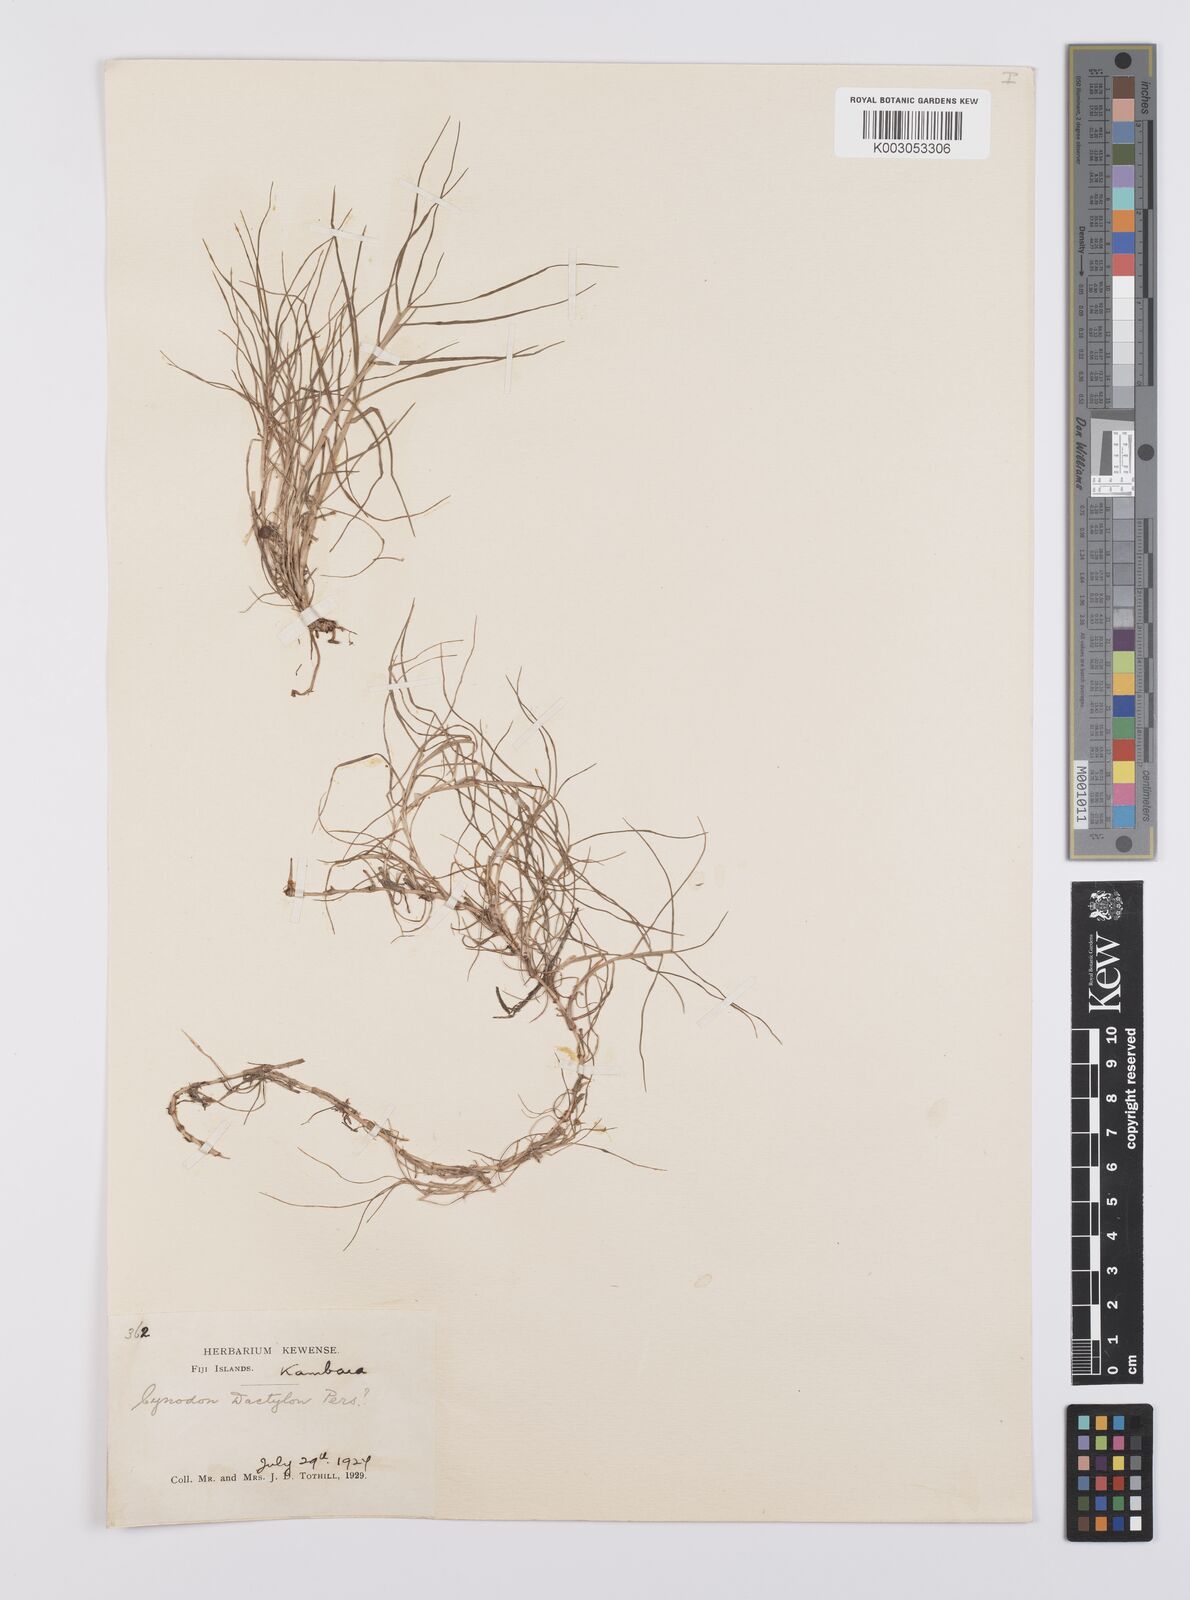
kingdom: Plantae
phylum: Tracheophyta
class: Liliopsida
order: Poales
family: Poaceae
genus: Cynodon
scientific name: Cynodon dactylon
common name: Bermuda grass
